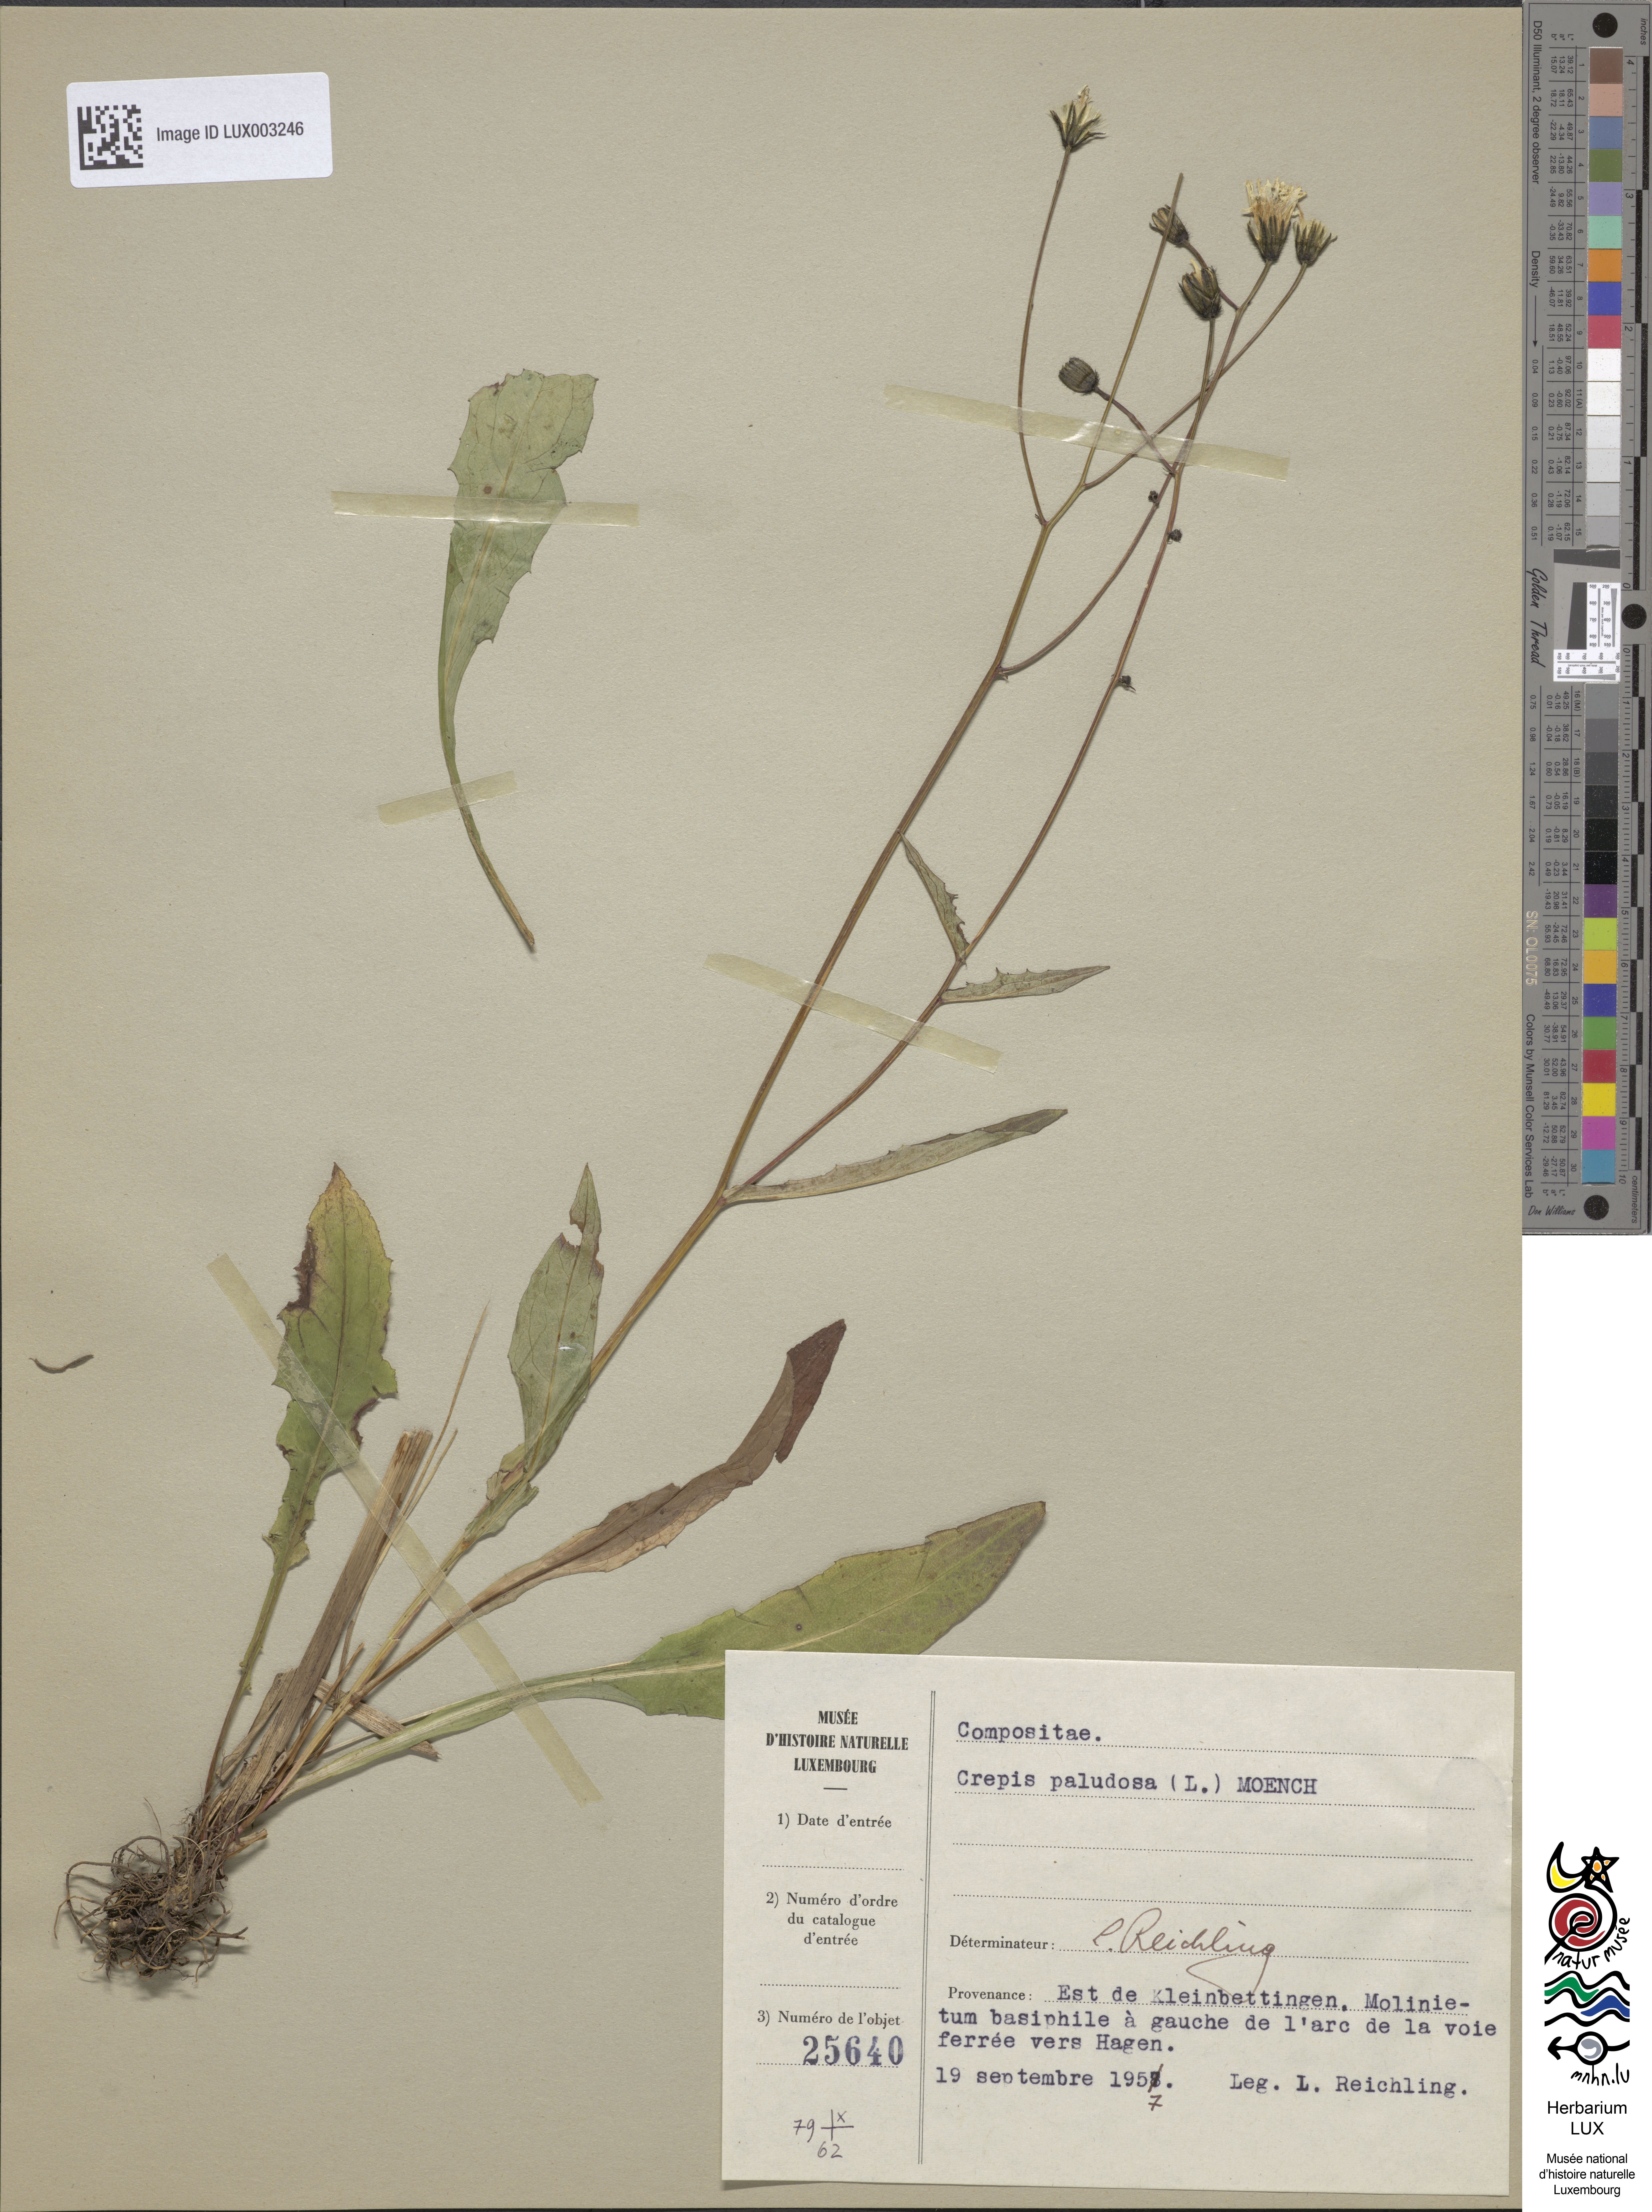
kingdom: Plantae
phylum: Tracheophyta
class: Magnoliopsida
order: Asterales
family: Asteraceae
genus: Crepis
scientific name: Crepis paludosa
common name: Marsh hawk's-beard
